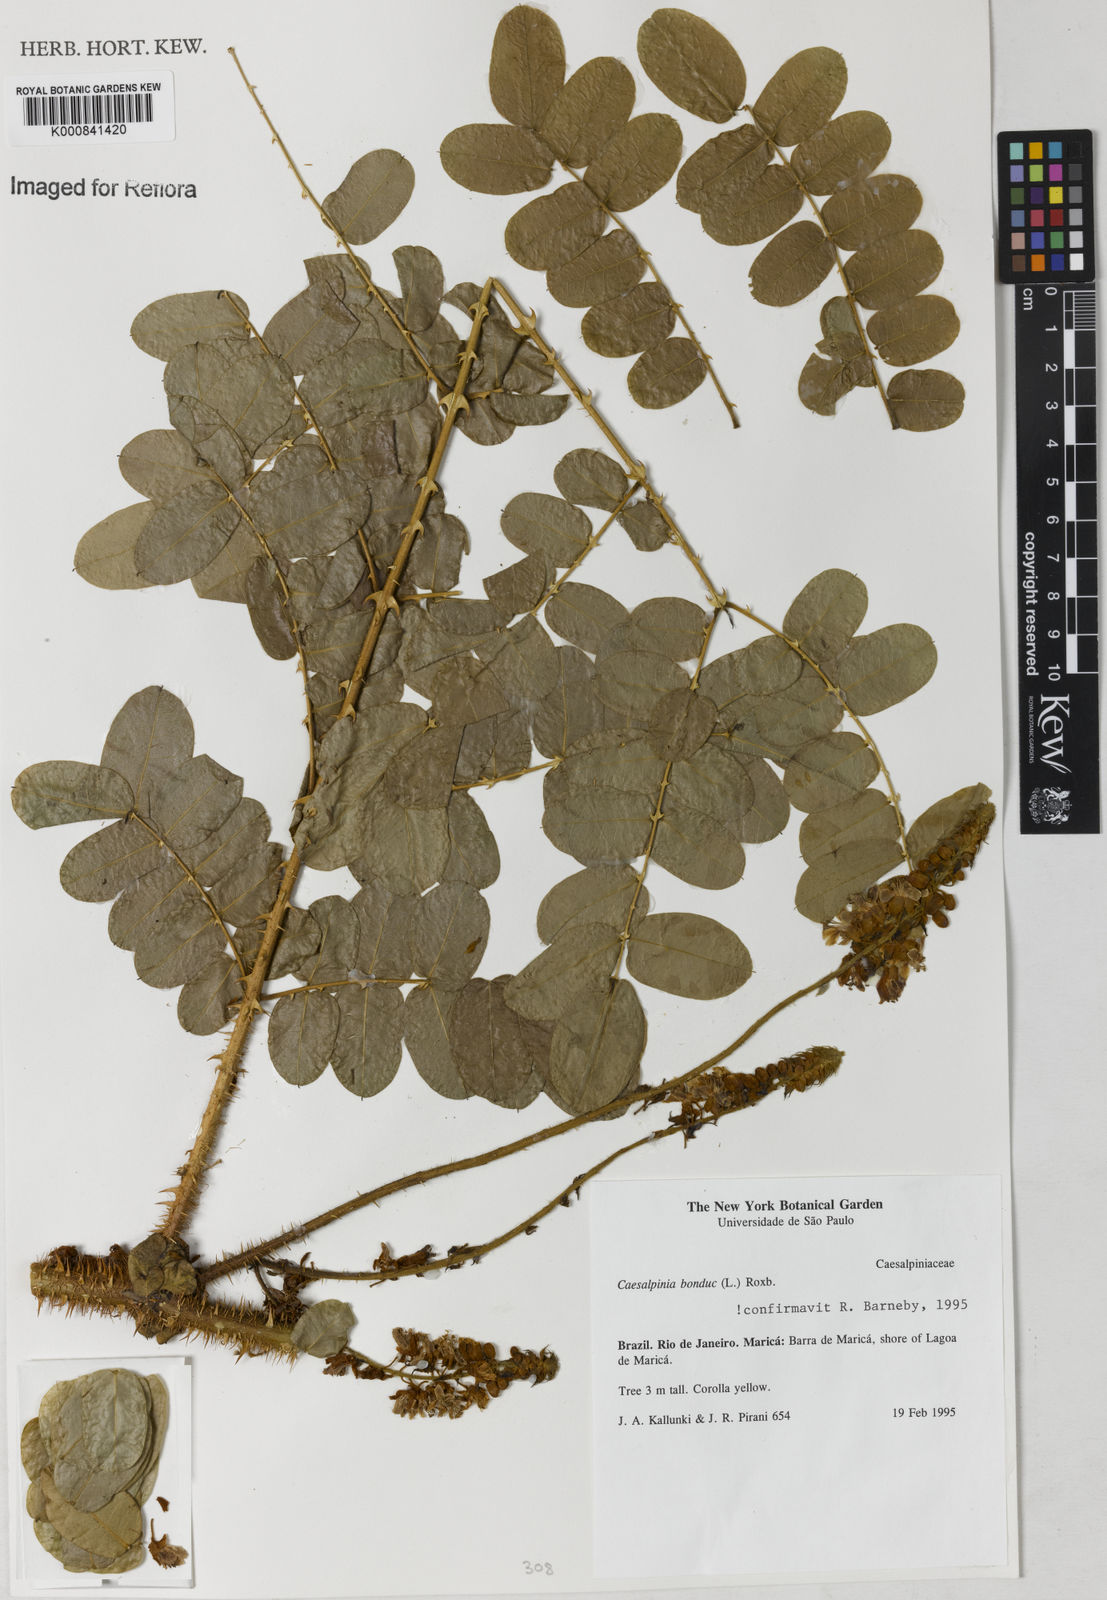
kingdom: Plantae
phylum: Tracheophyta
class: Magnoliopsida
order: Fabales
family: Fabaceae
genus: Guilandina
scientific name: Guilandina bonduc
